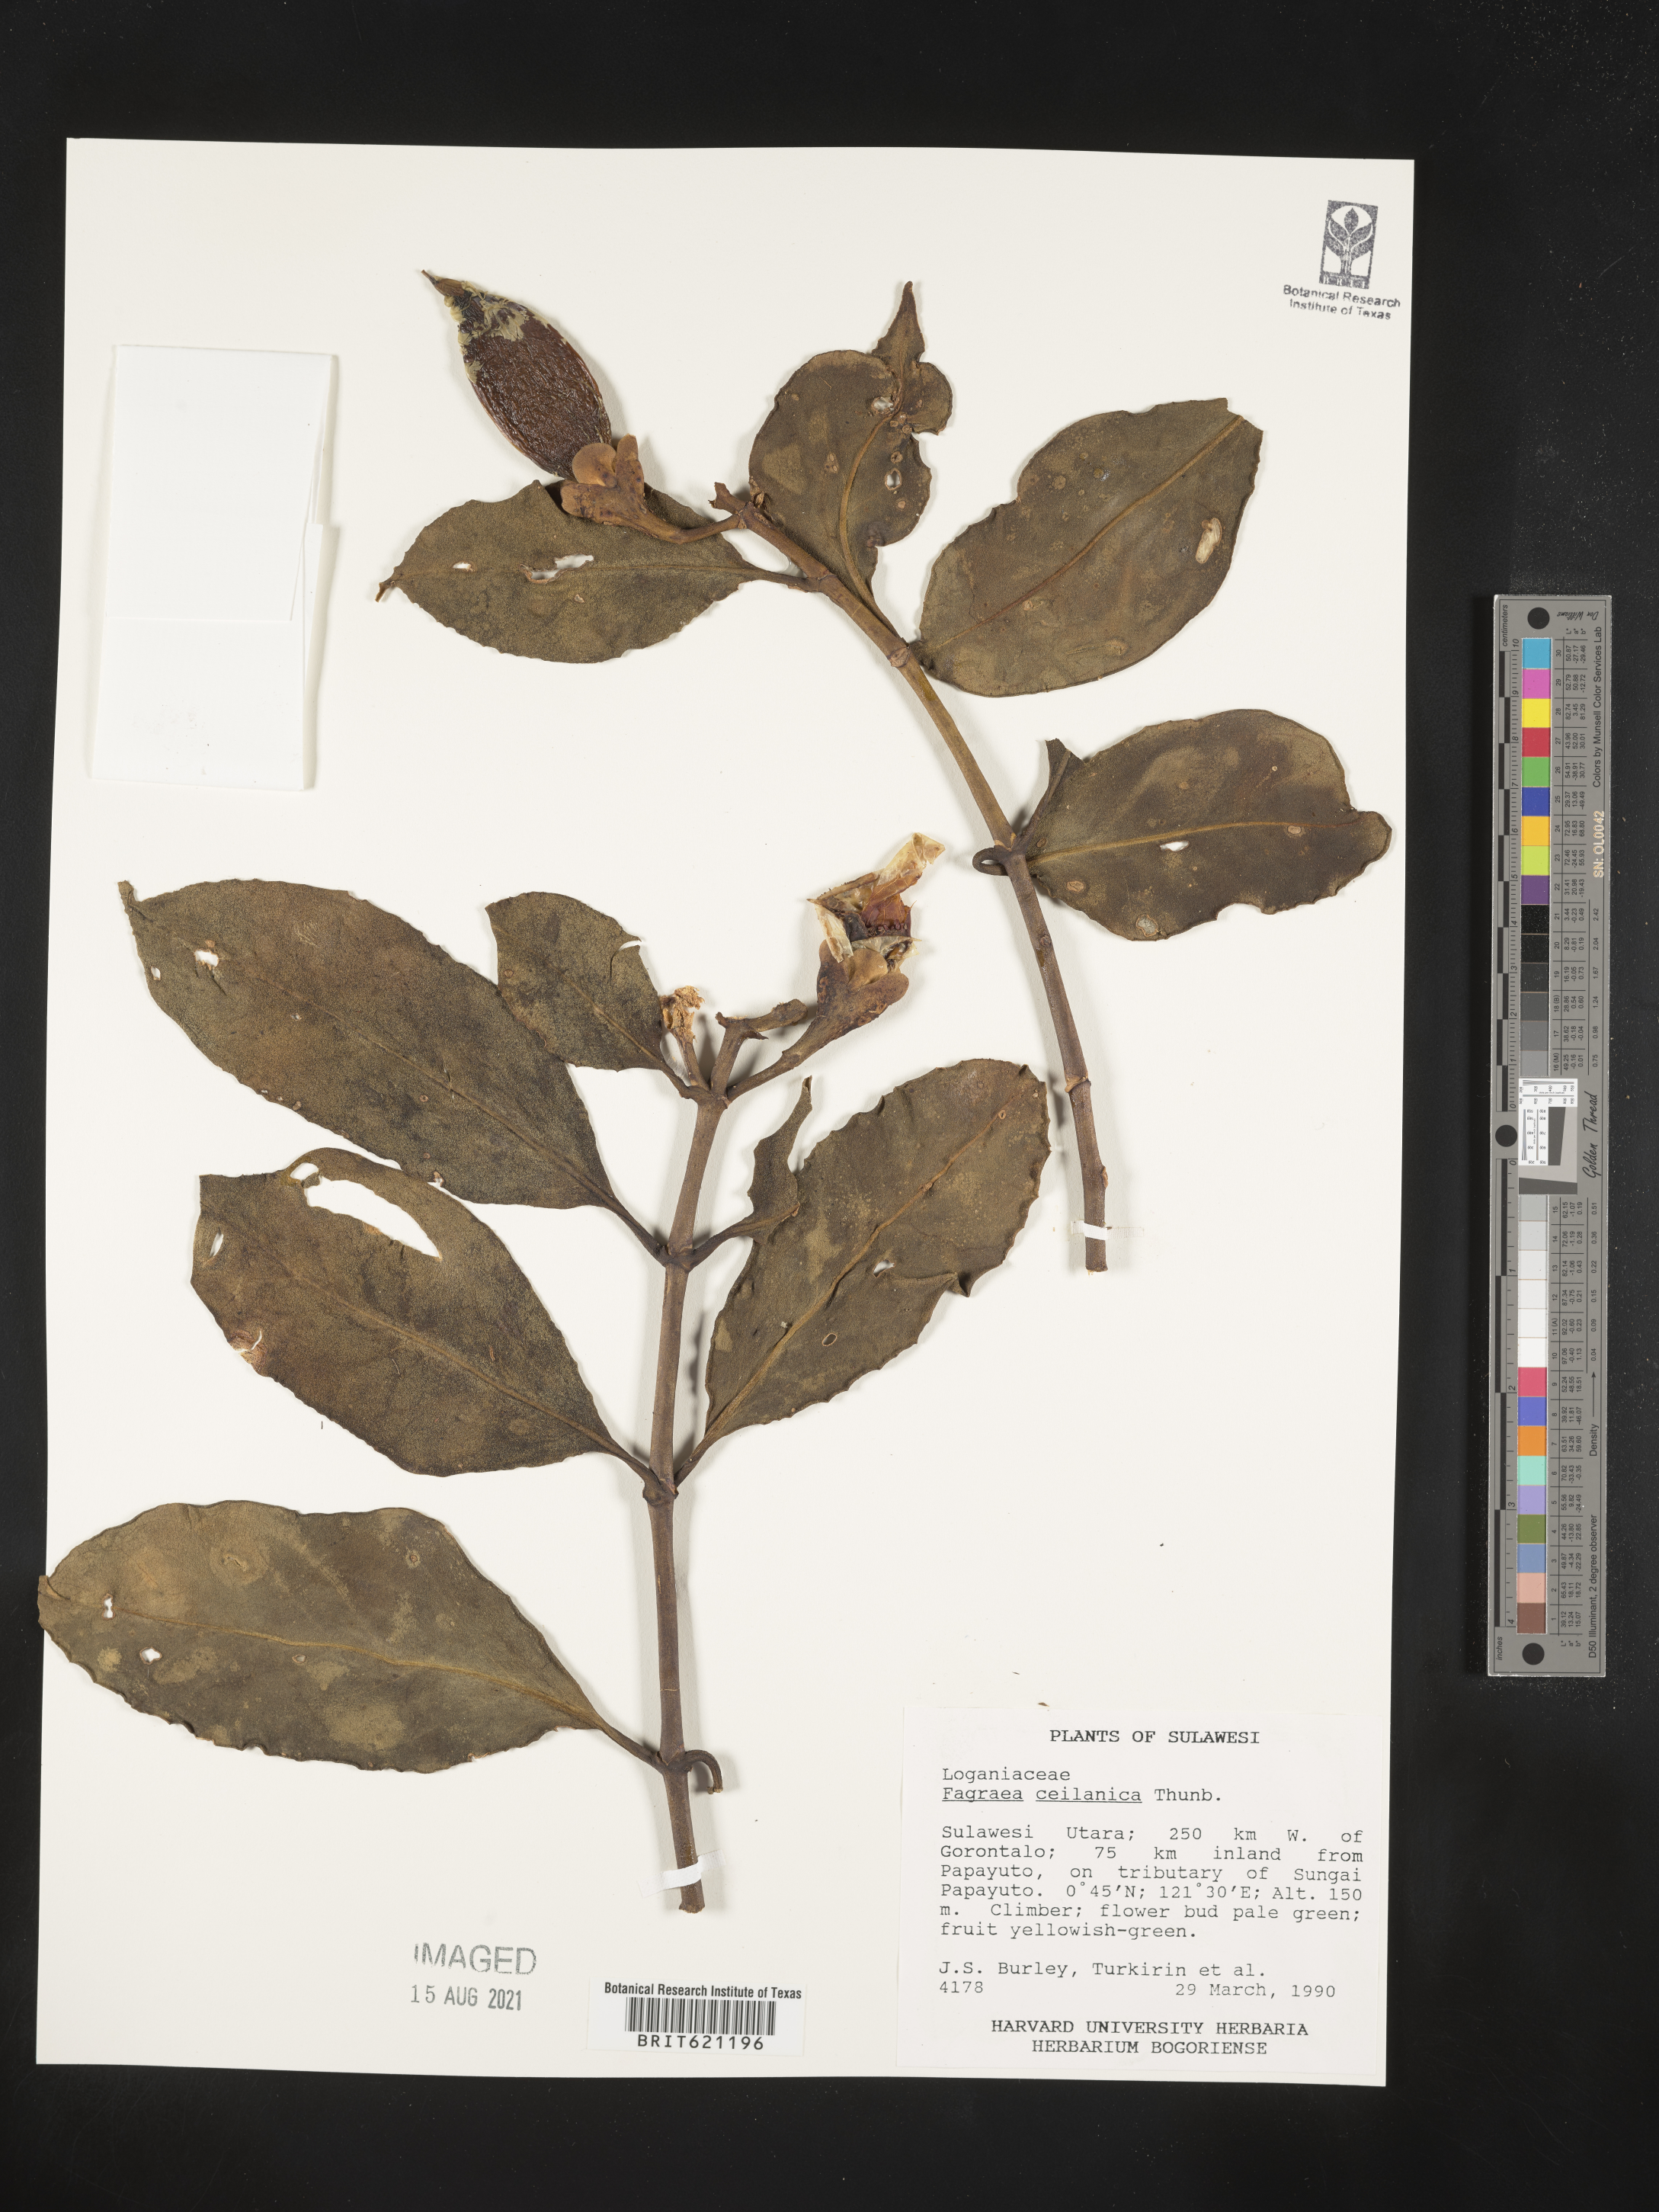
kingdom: Plantae
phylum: Tracheophyta
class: Magnoliopsida
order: Gentianales
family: Gentianaceae
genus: Fagraea
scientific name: Fagraea ceilanica
